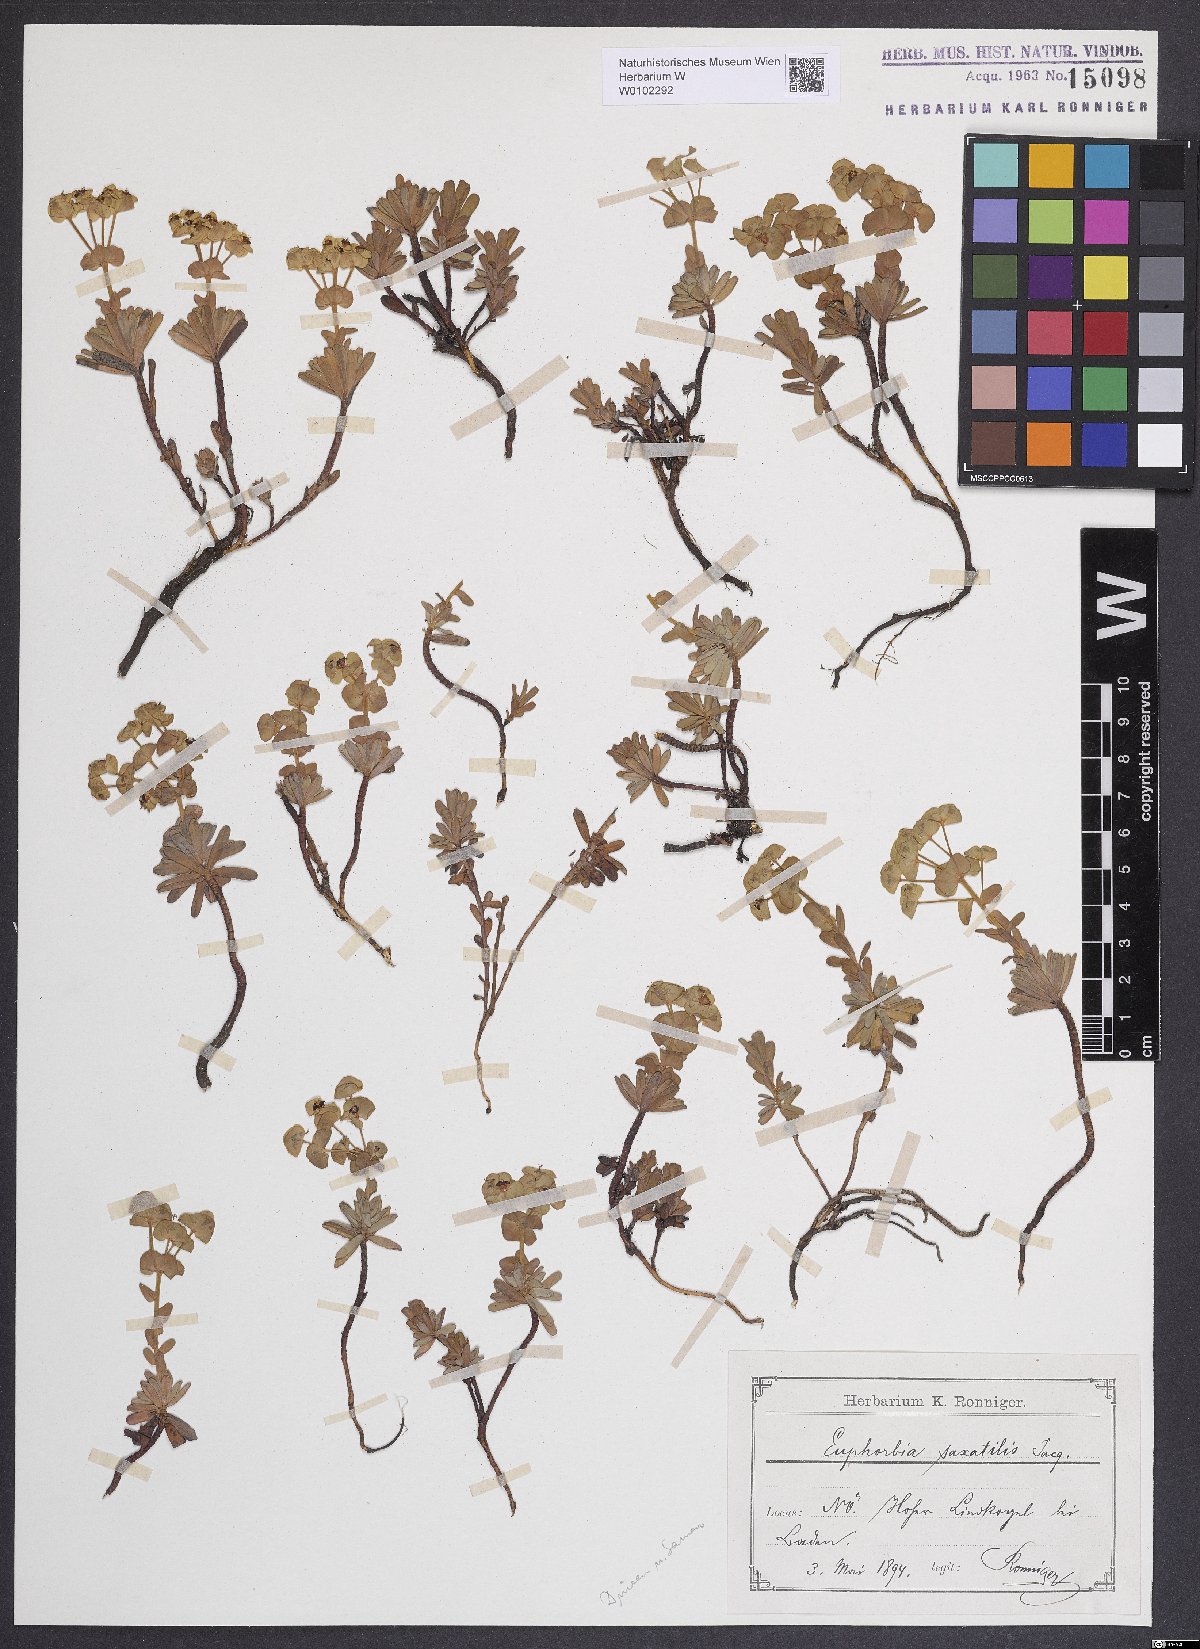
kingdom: Plantae
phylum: Tracheophyta
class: Magnoliopsida
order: Malpighiales
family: Euphorbiaceae
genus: Euphorbia
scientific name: Euphorbia saxatilis
